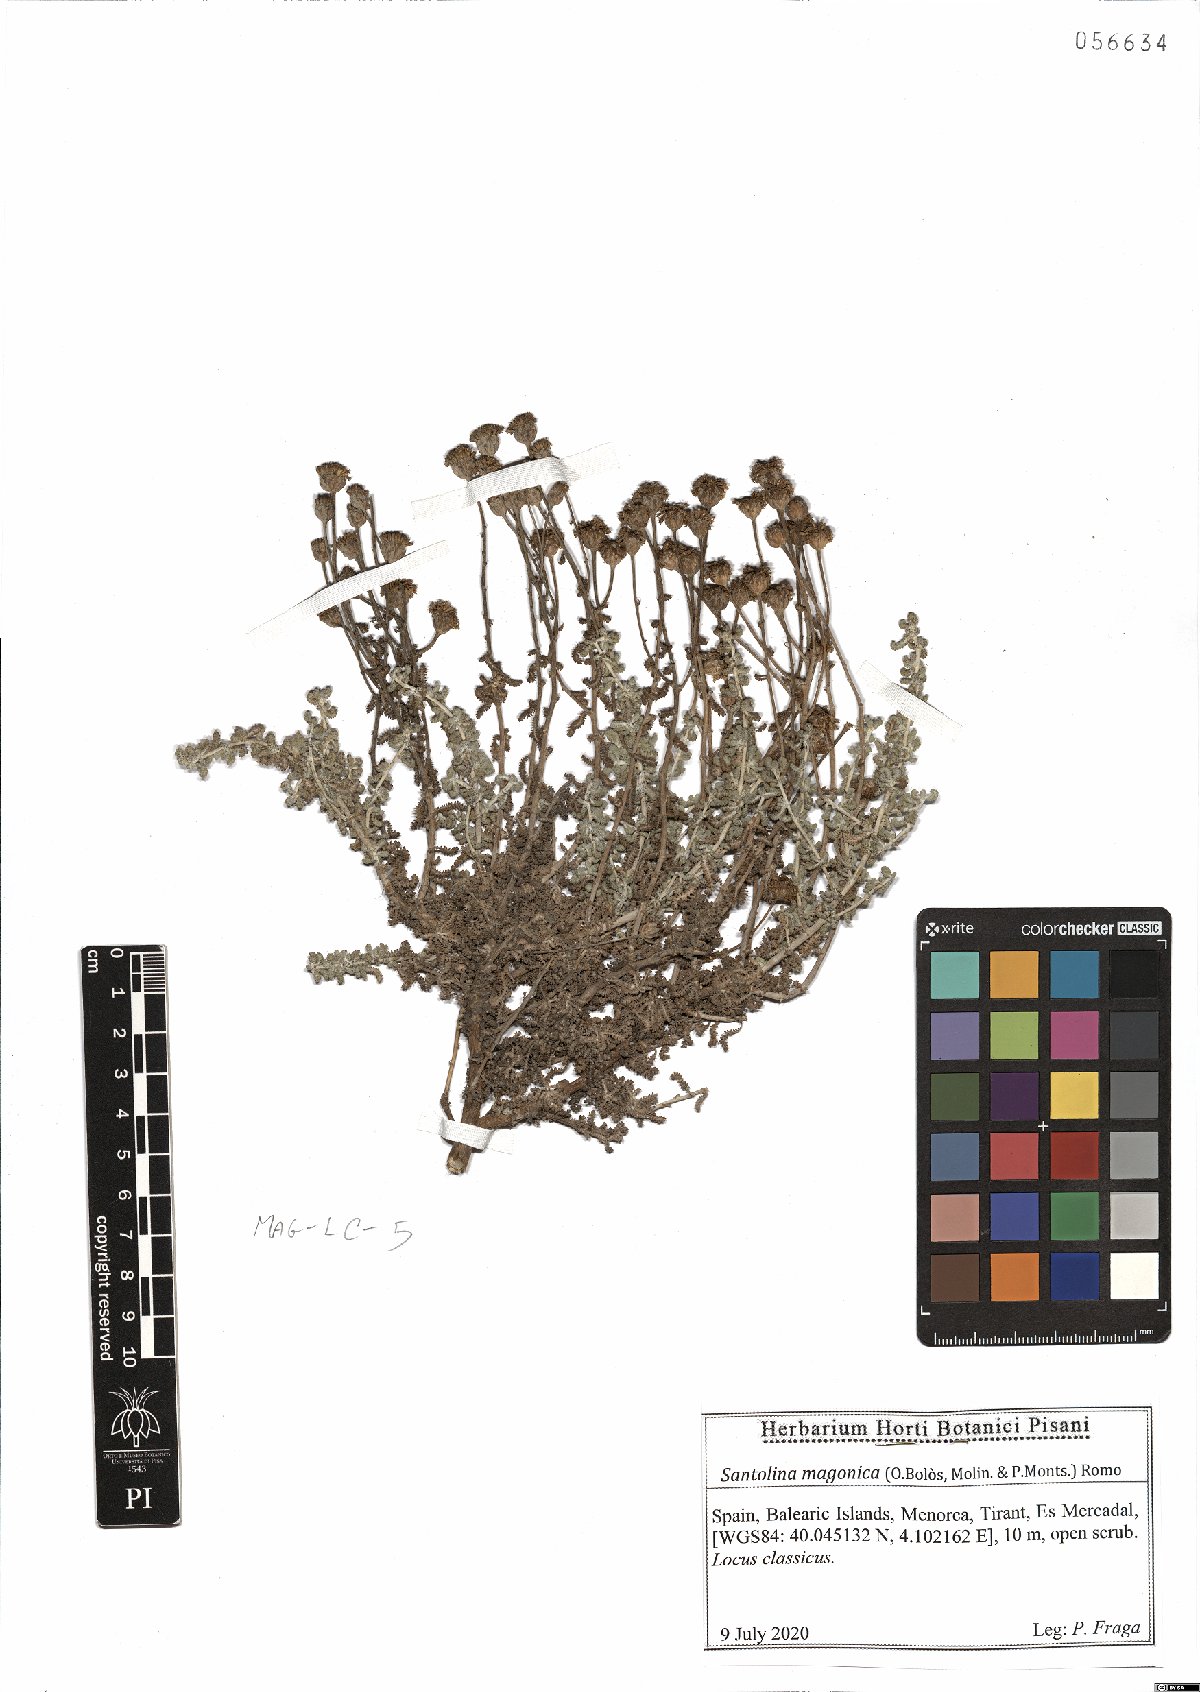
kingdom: Plantae
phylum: Tracheophyta
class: Magnoliopsida
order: Asterales
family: Asteraceae
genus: Santolina
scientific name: Santolina magonica
